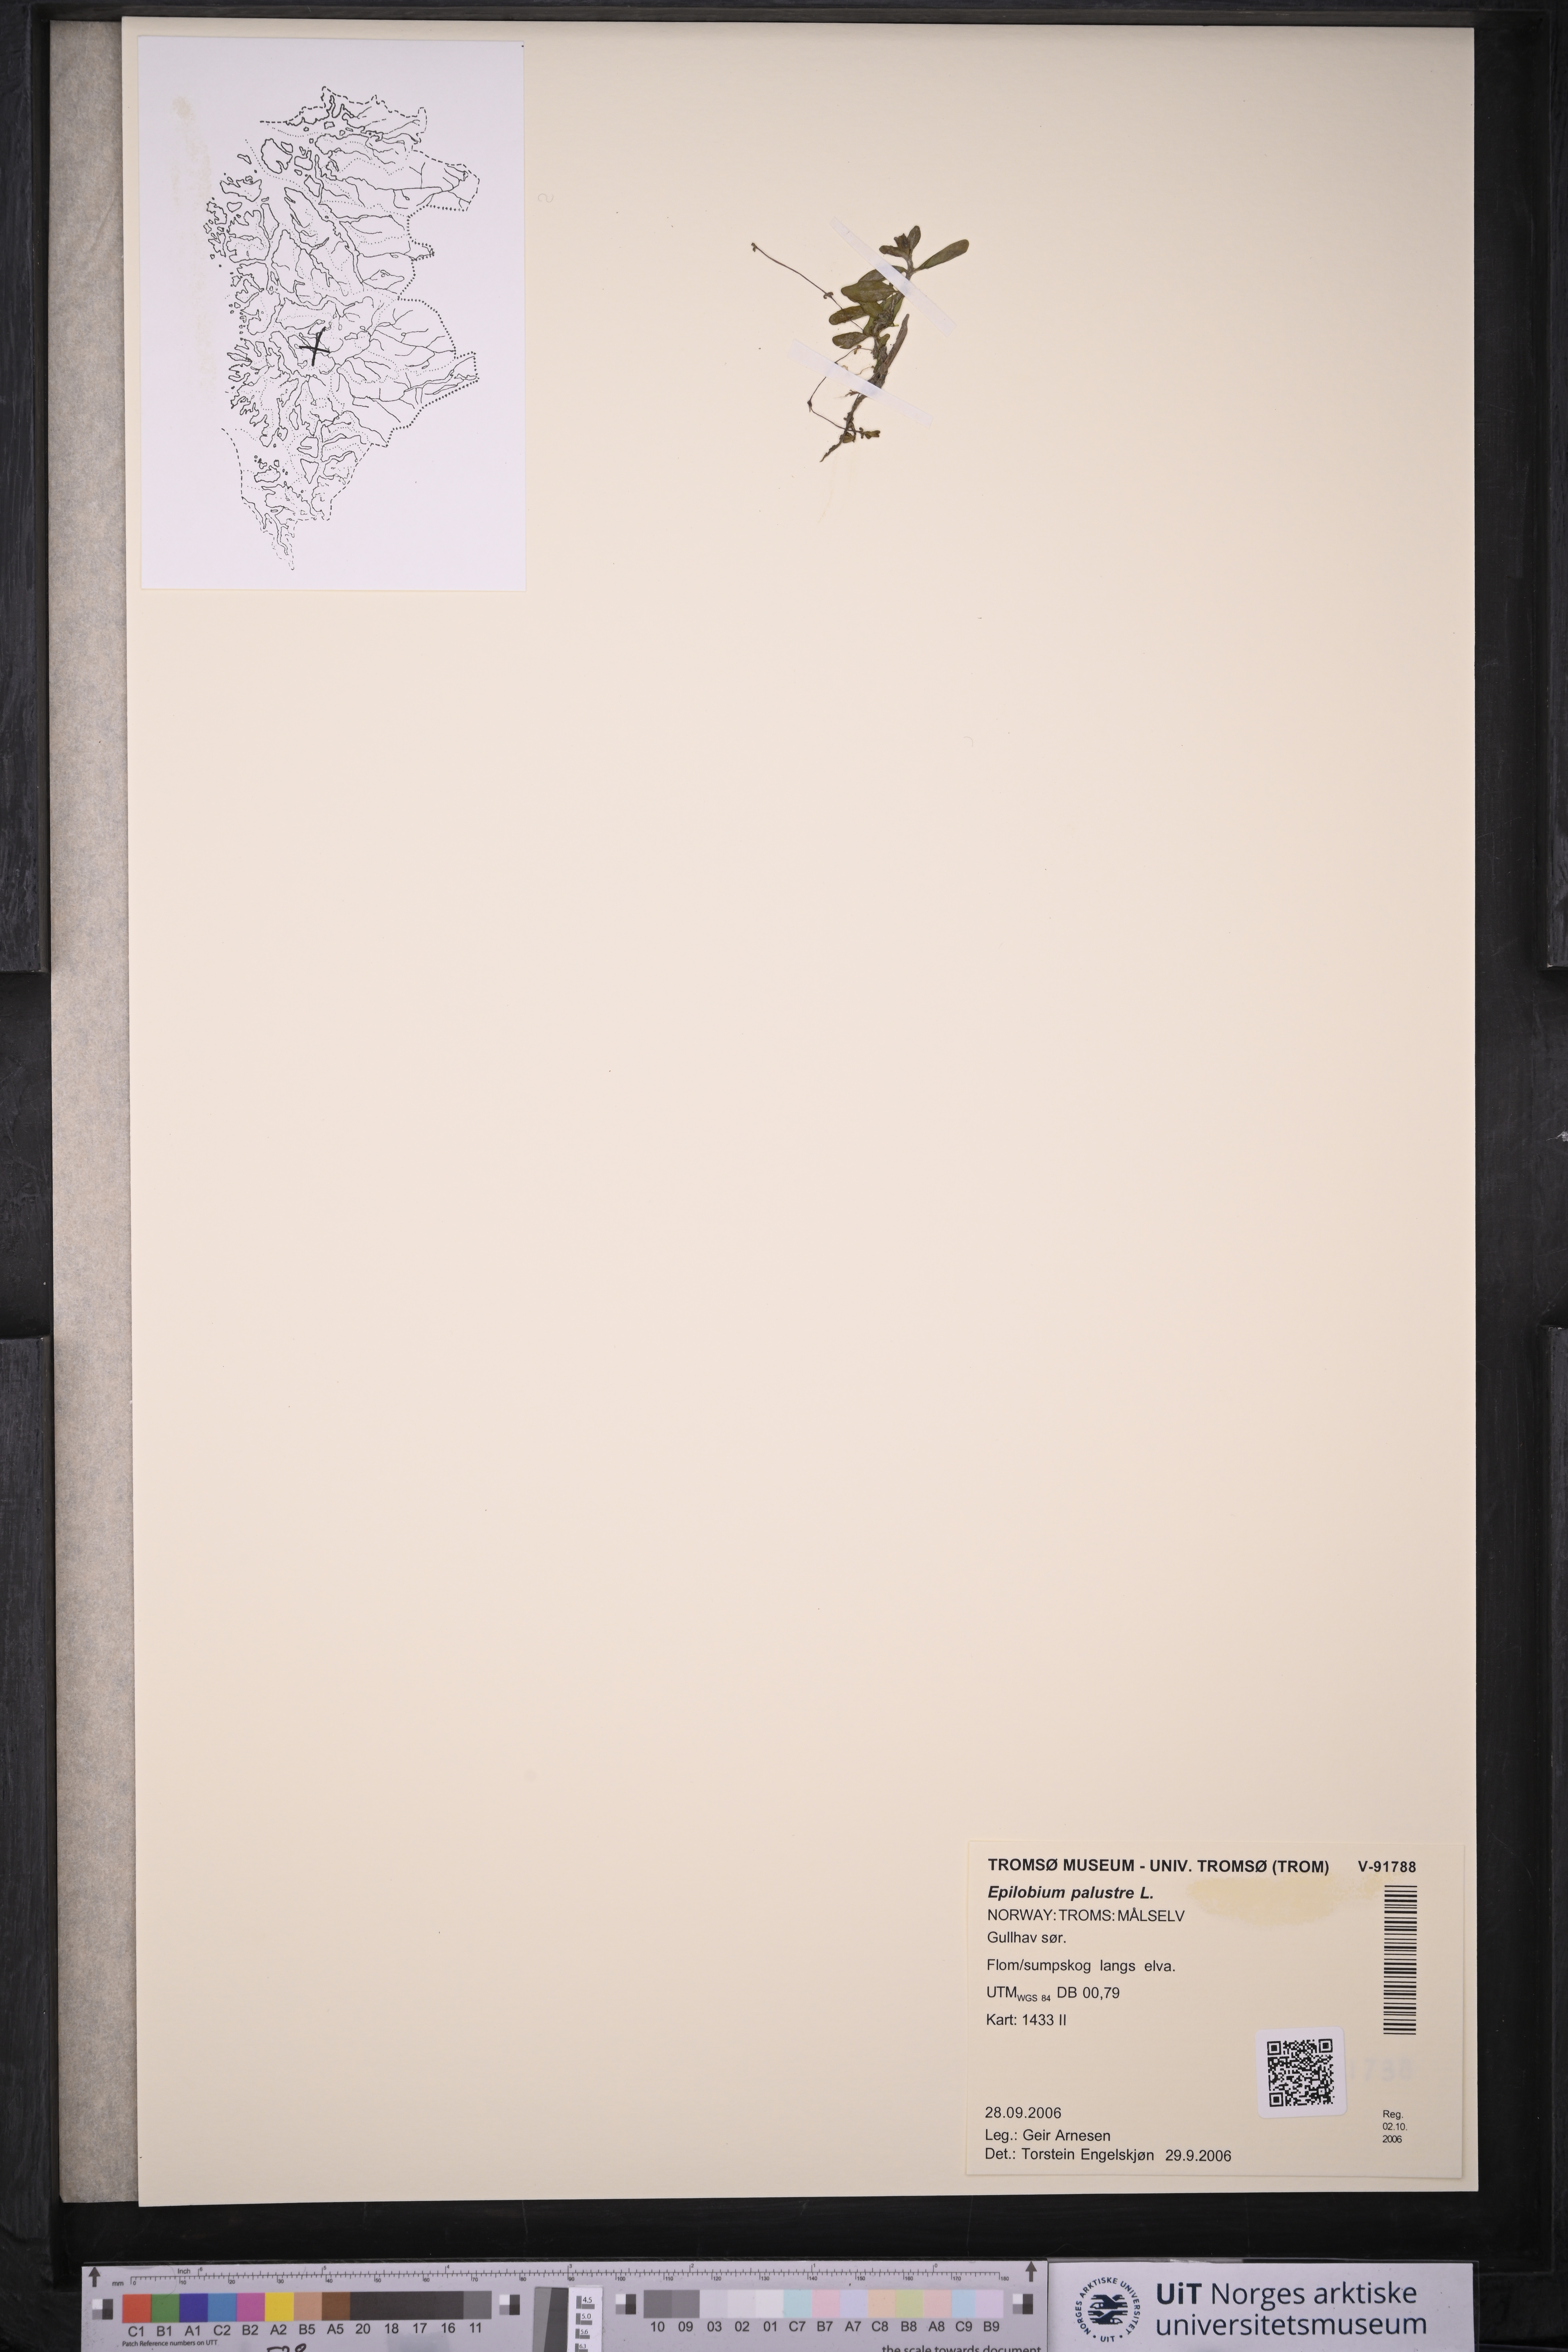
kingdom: Plantae
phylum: Tracheophyta
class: Magnoliopsida
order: Myrtales
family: Onagraceae
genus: Epilobium
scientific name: Epilobium palustre
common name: Marsh willowherb
